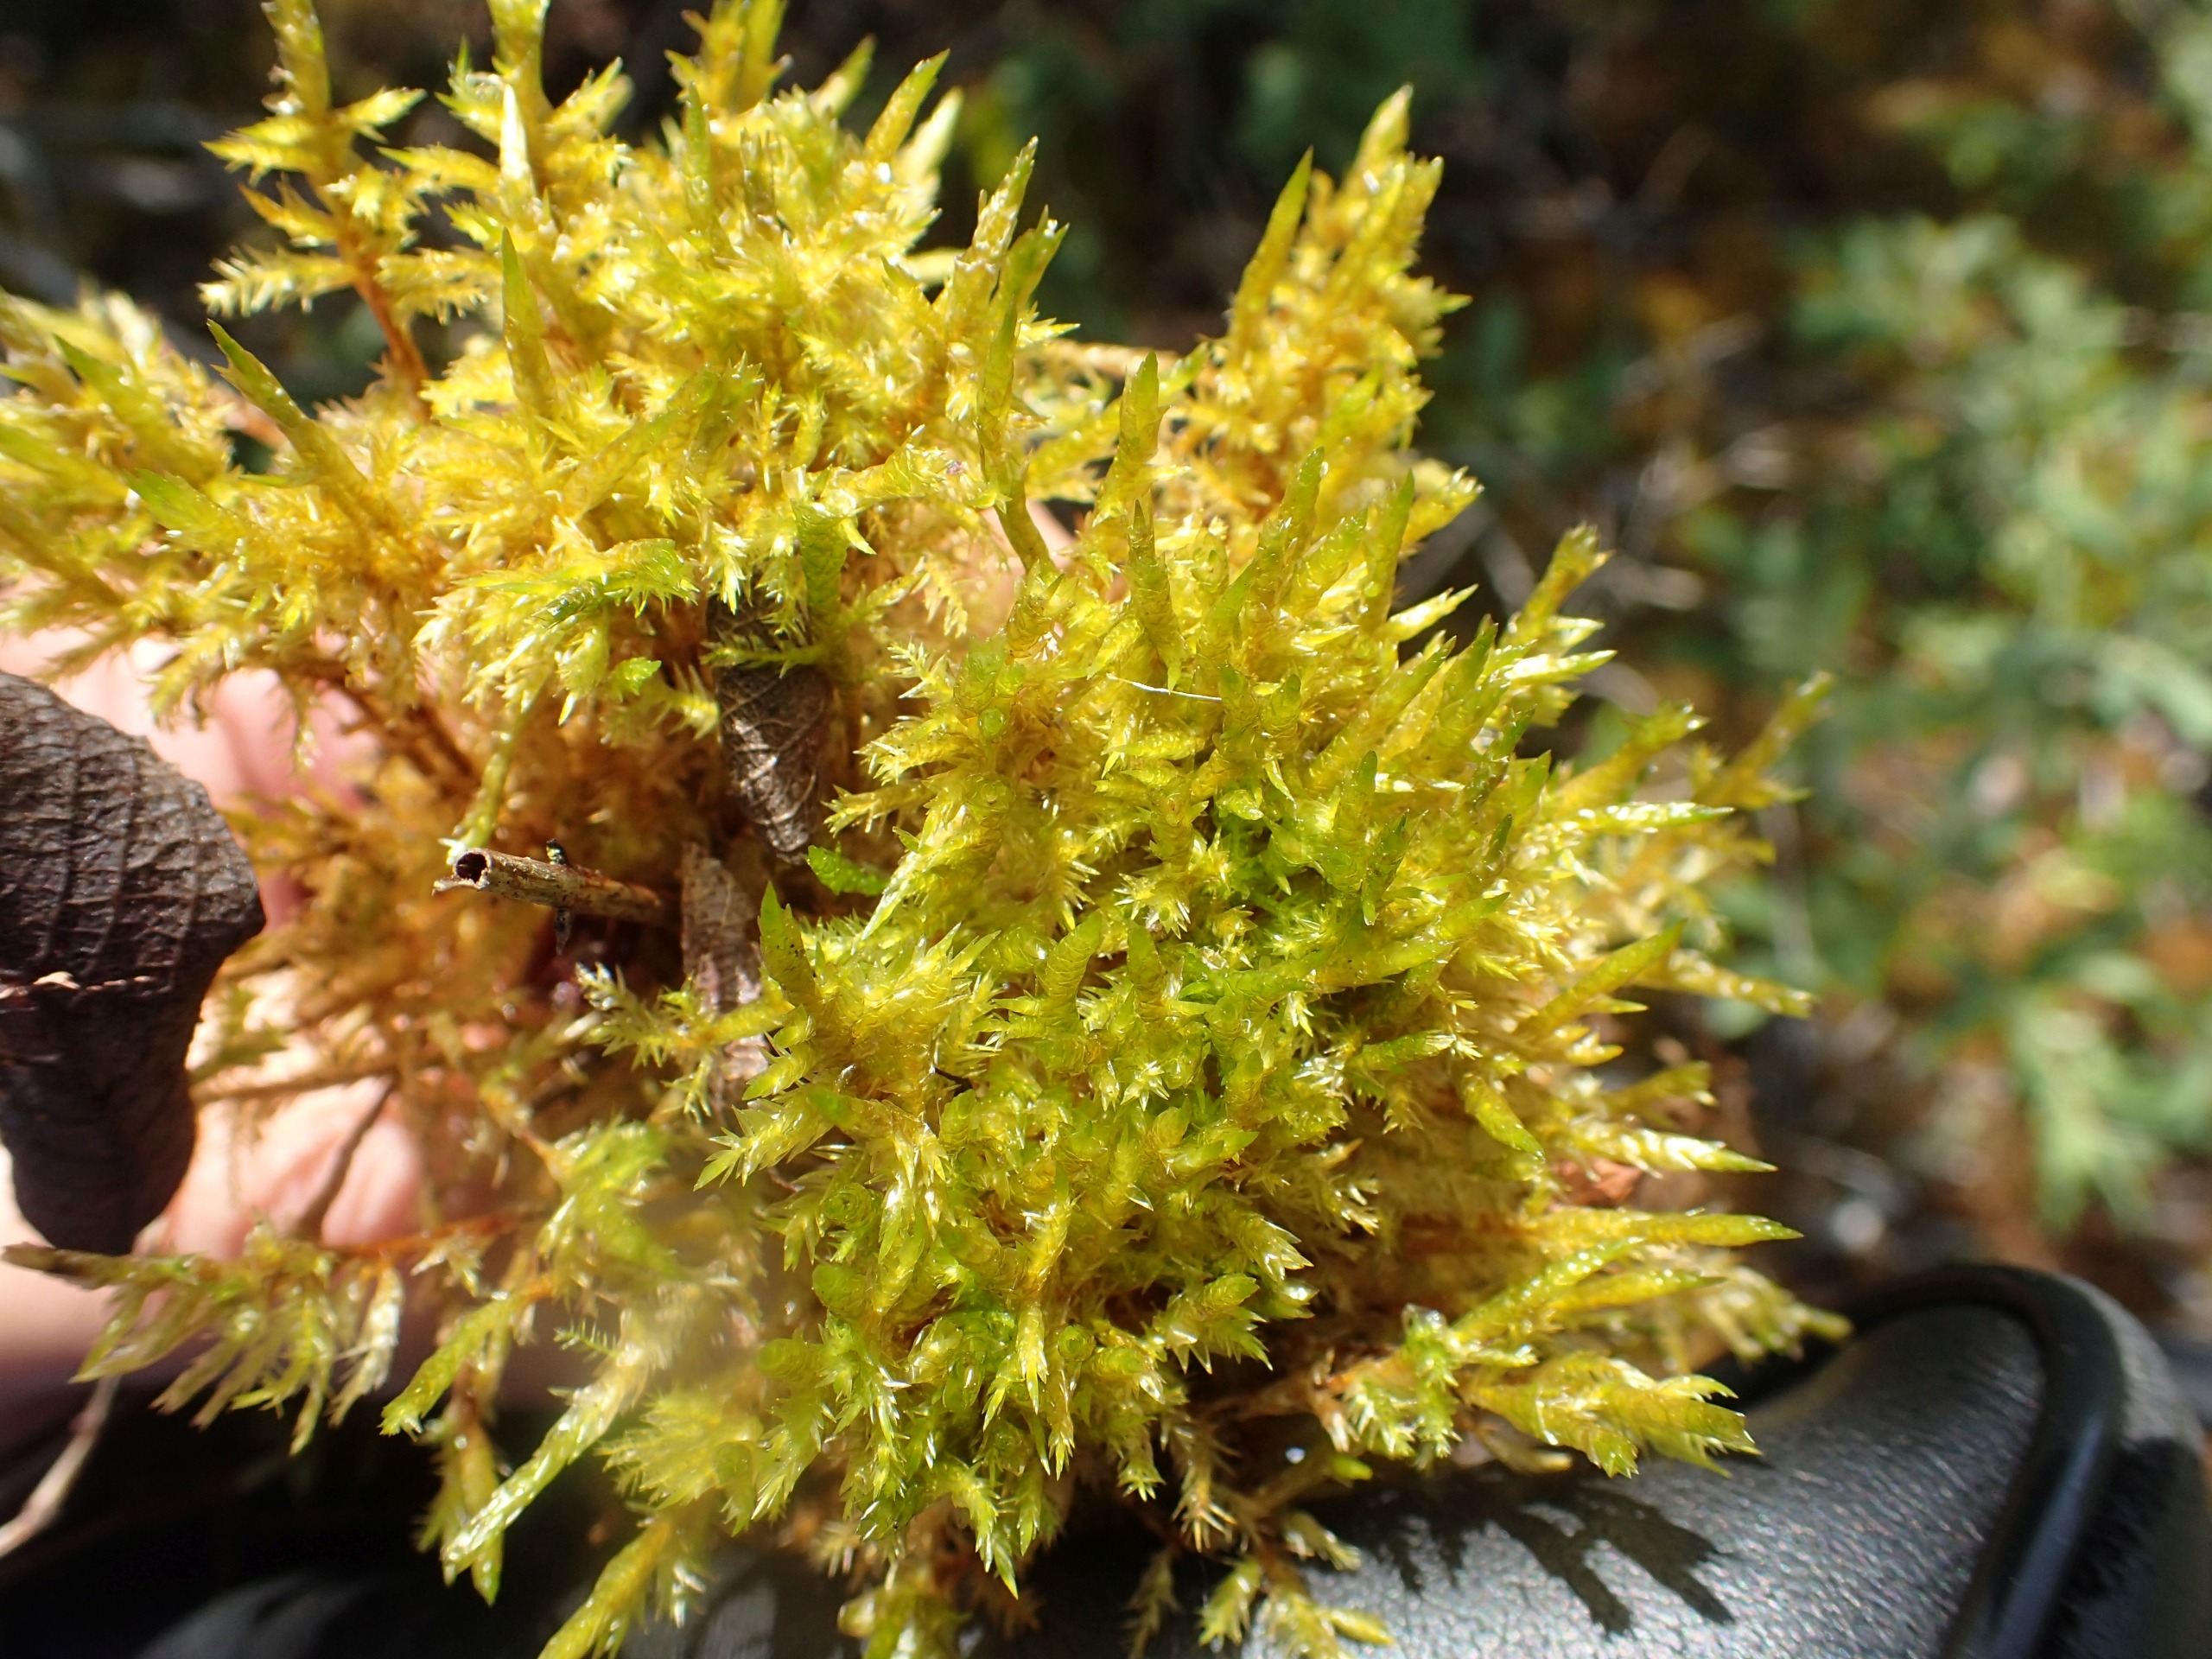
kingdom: Plantae
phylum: Bryophyta
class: Bryopsida
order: Hypnales
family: Pylaisiaceae
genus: Calliergonella
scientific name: Calliergonella cuspidata
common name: Spids spydmos
